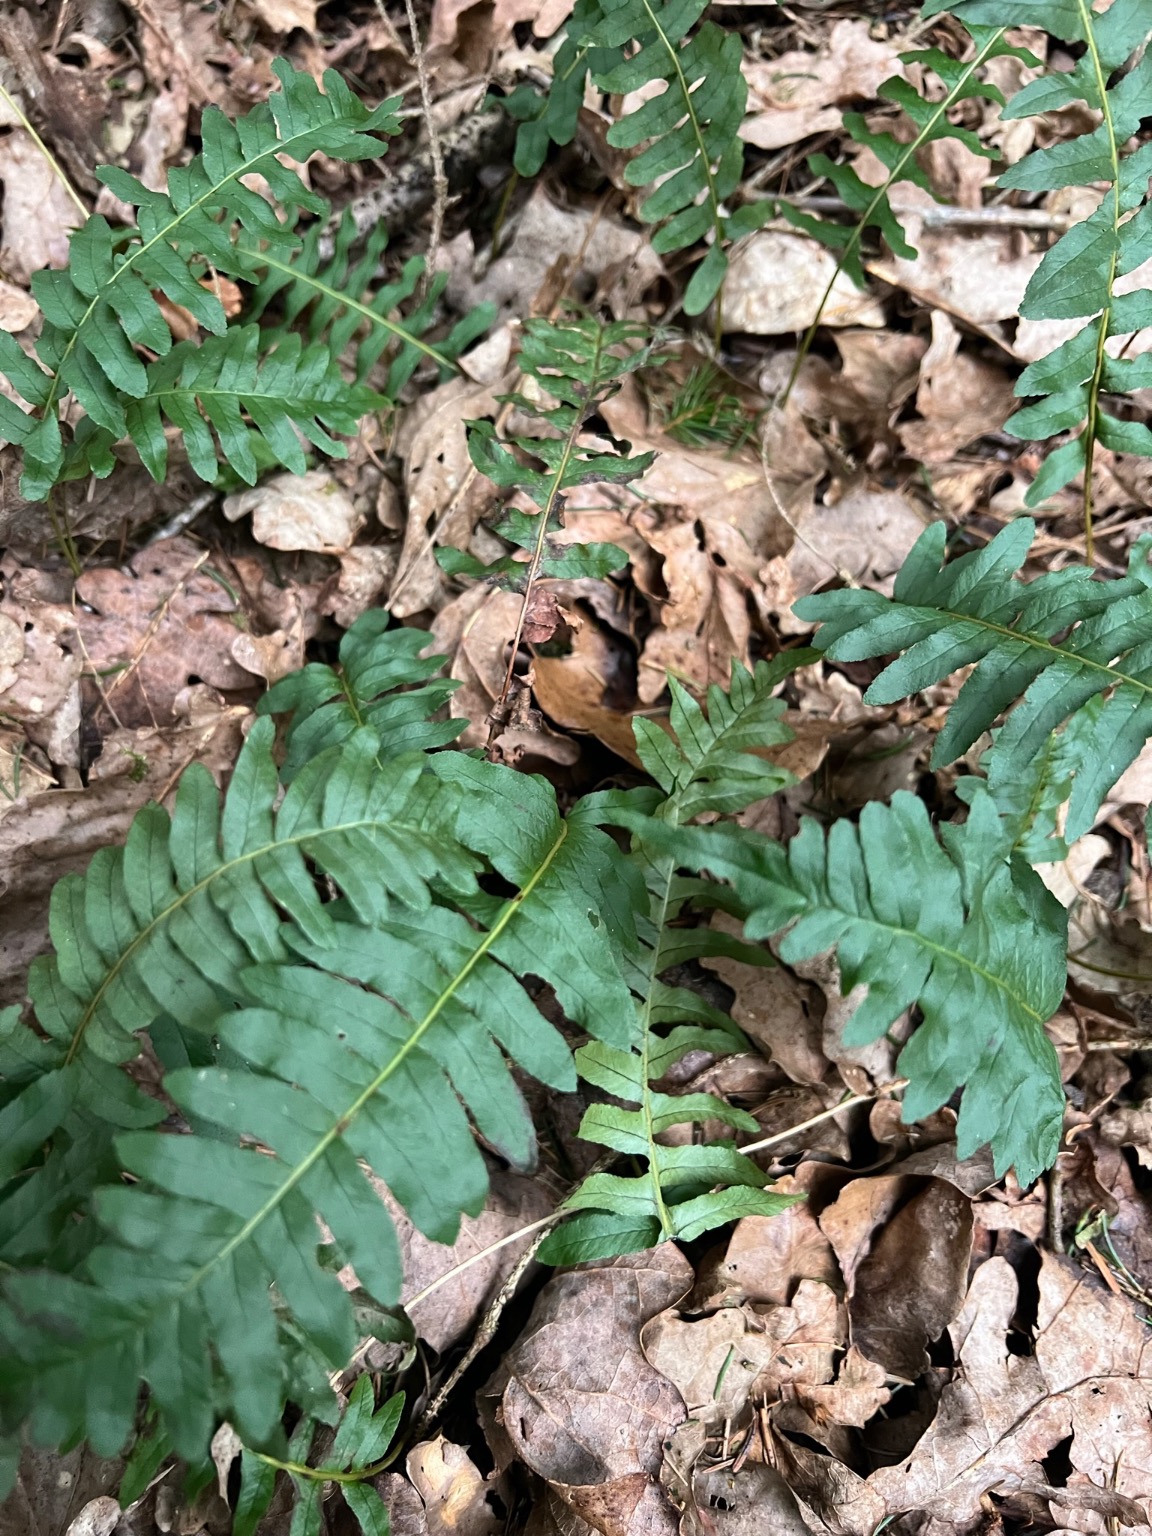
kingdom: Plantae
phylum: Tracheophyta
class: Polypodiopsida
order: Polypodiales
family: Polypodiaceae
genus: Polypodium
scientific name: Polypodium vulgare
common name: Almindelig engelsød
